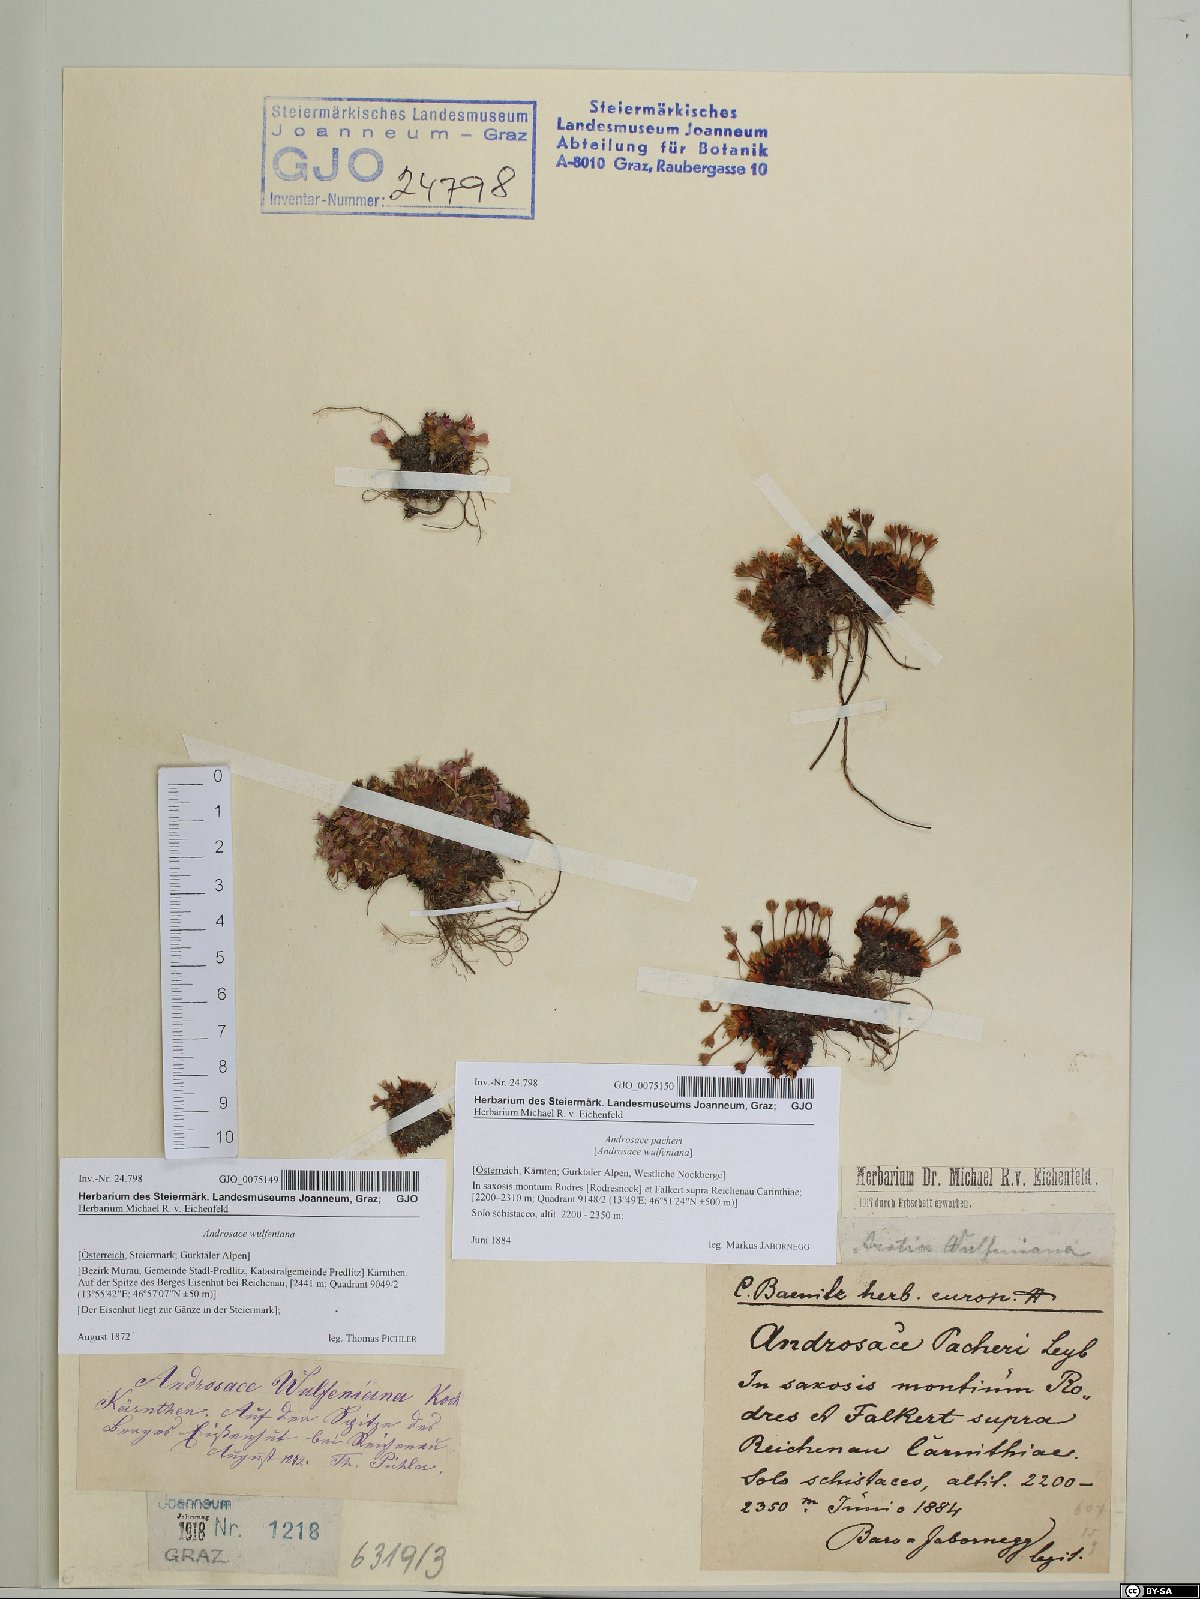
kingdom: Plantae
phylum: Tracheophyta
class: Magnoliopsida
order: Ericales
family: Primulaceae
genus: Androsace
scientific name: Androsace wulfeniana
